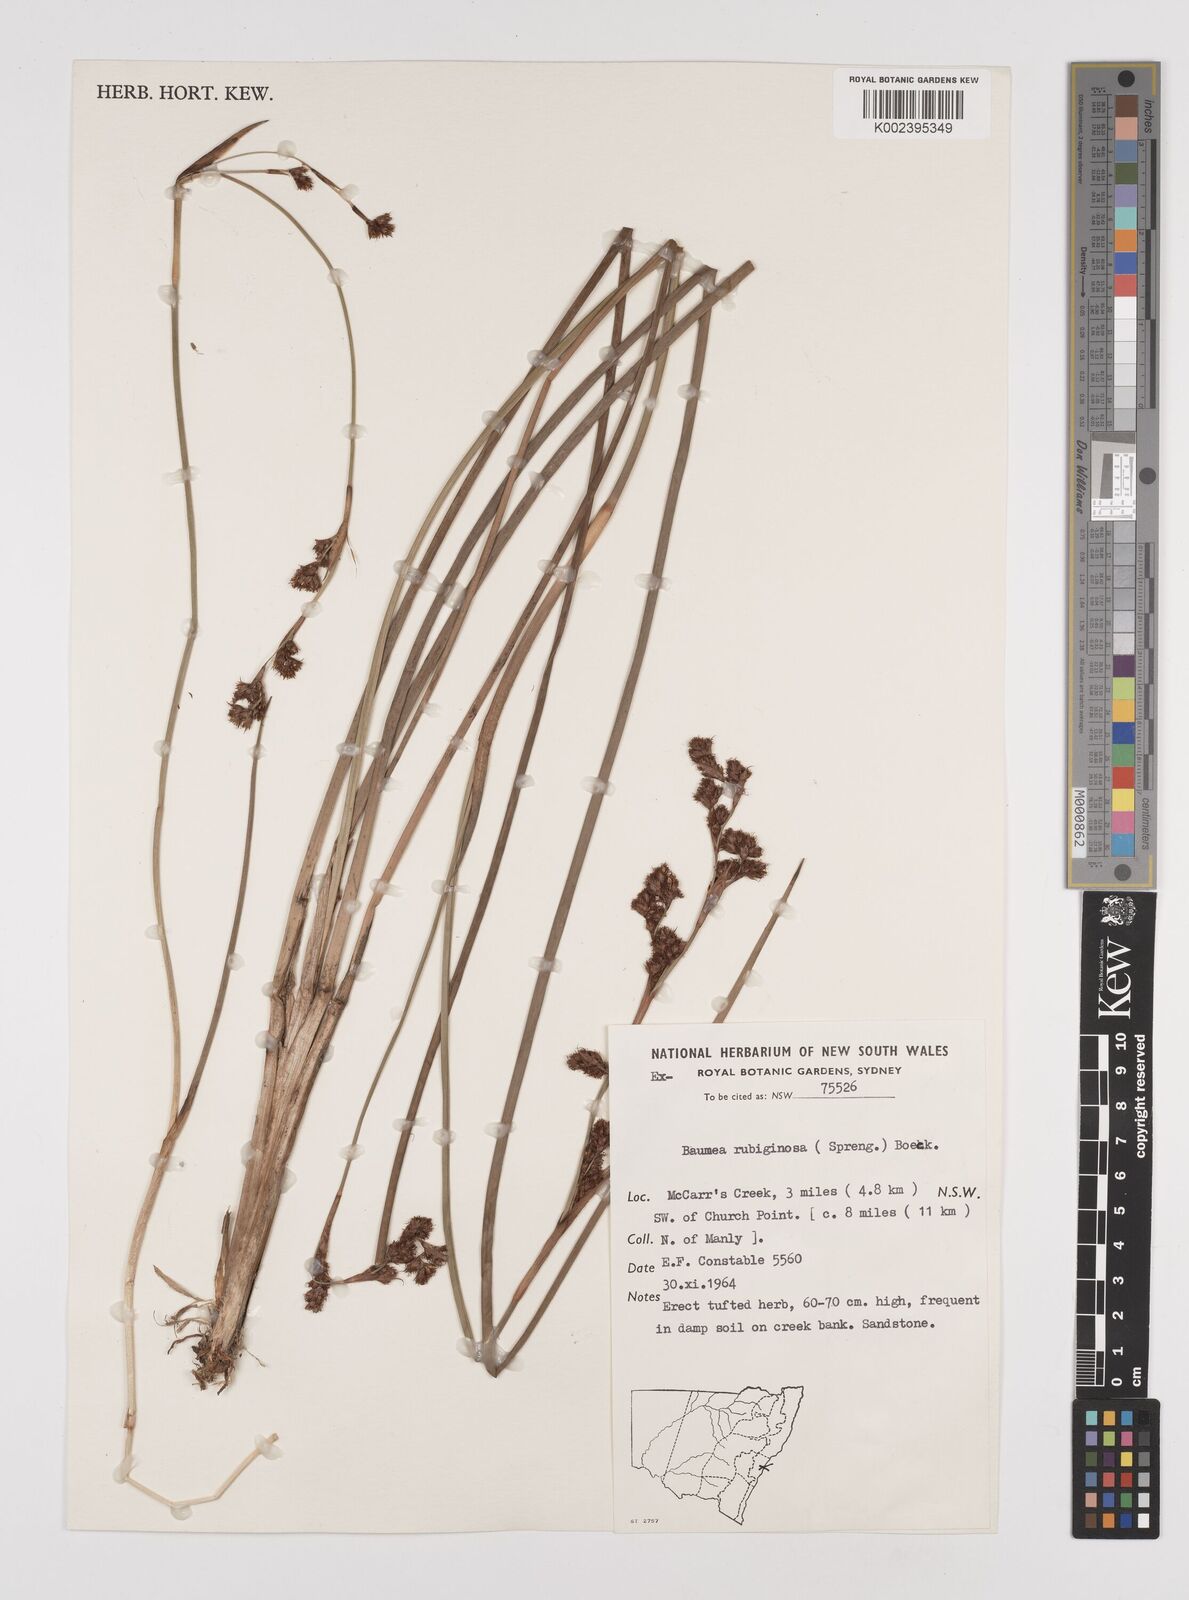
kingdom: Plantae
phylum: Tracheophyta
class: Liliopsida
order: Poales
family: Cyperaceae
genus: Machaerina
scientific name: Machaerina rubiginosa
